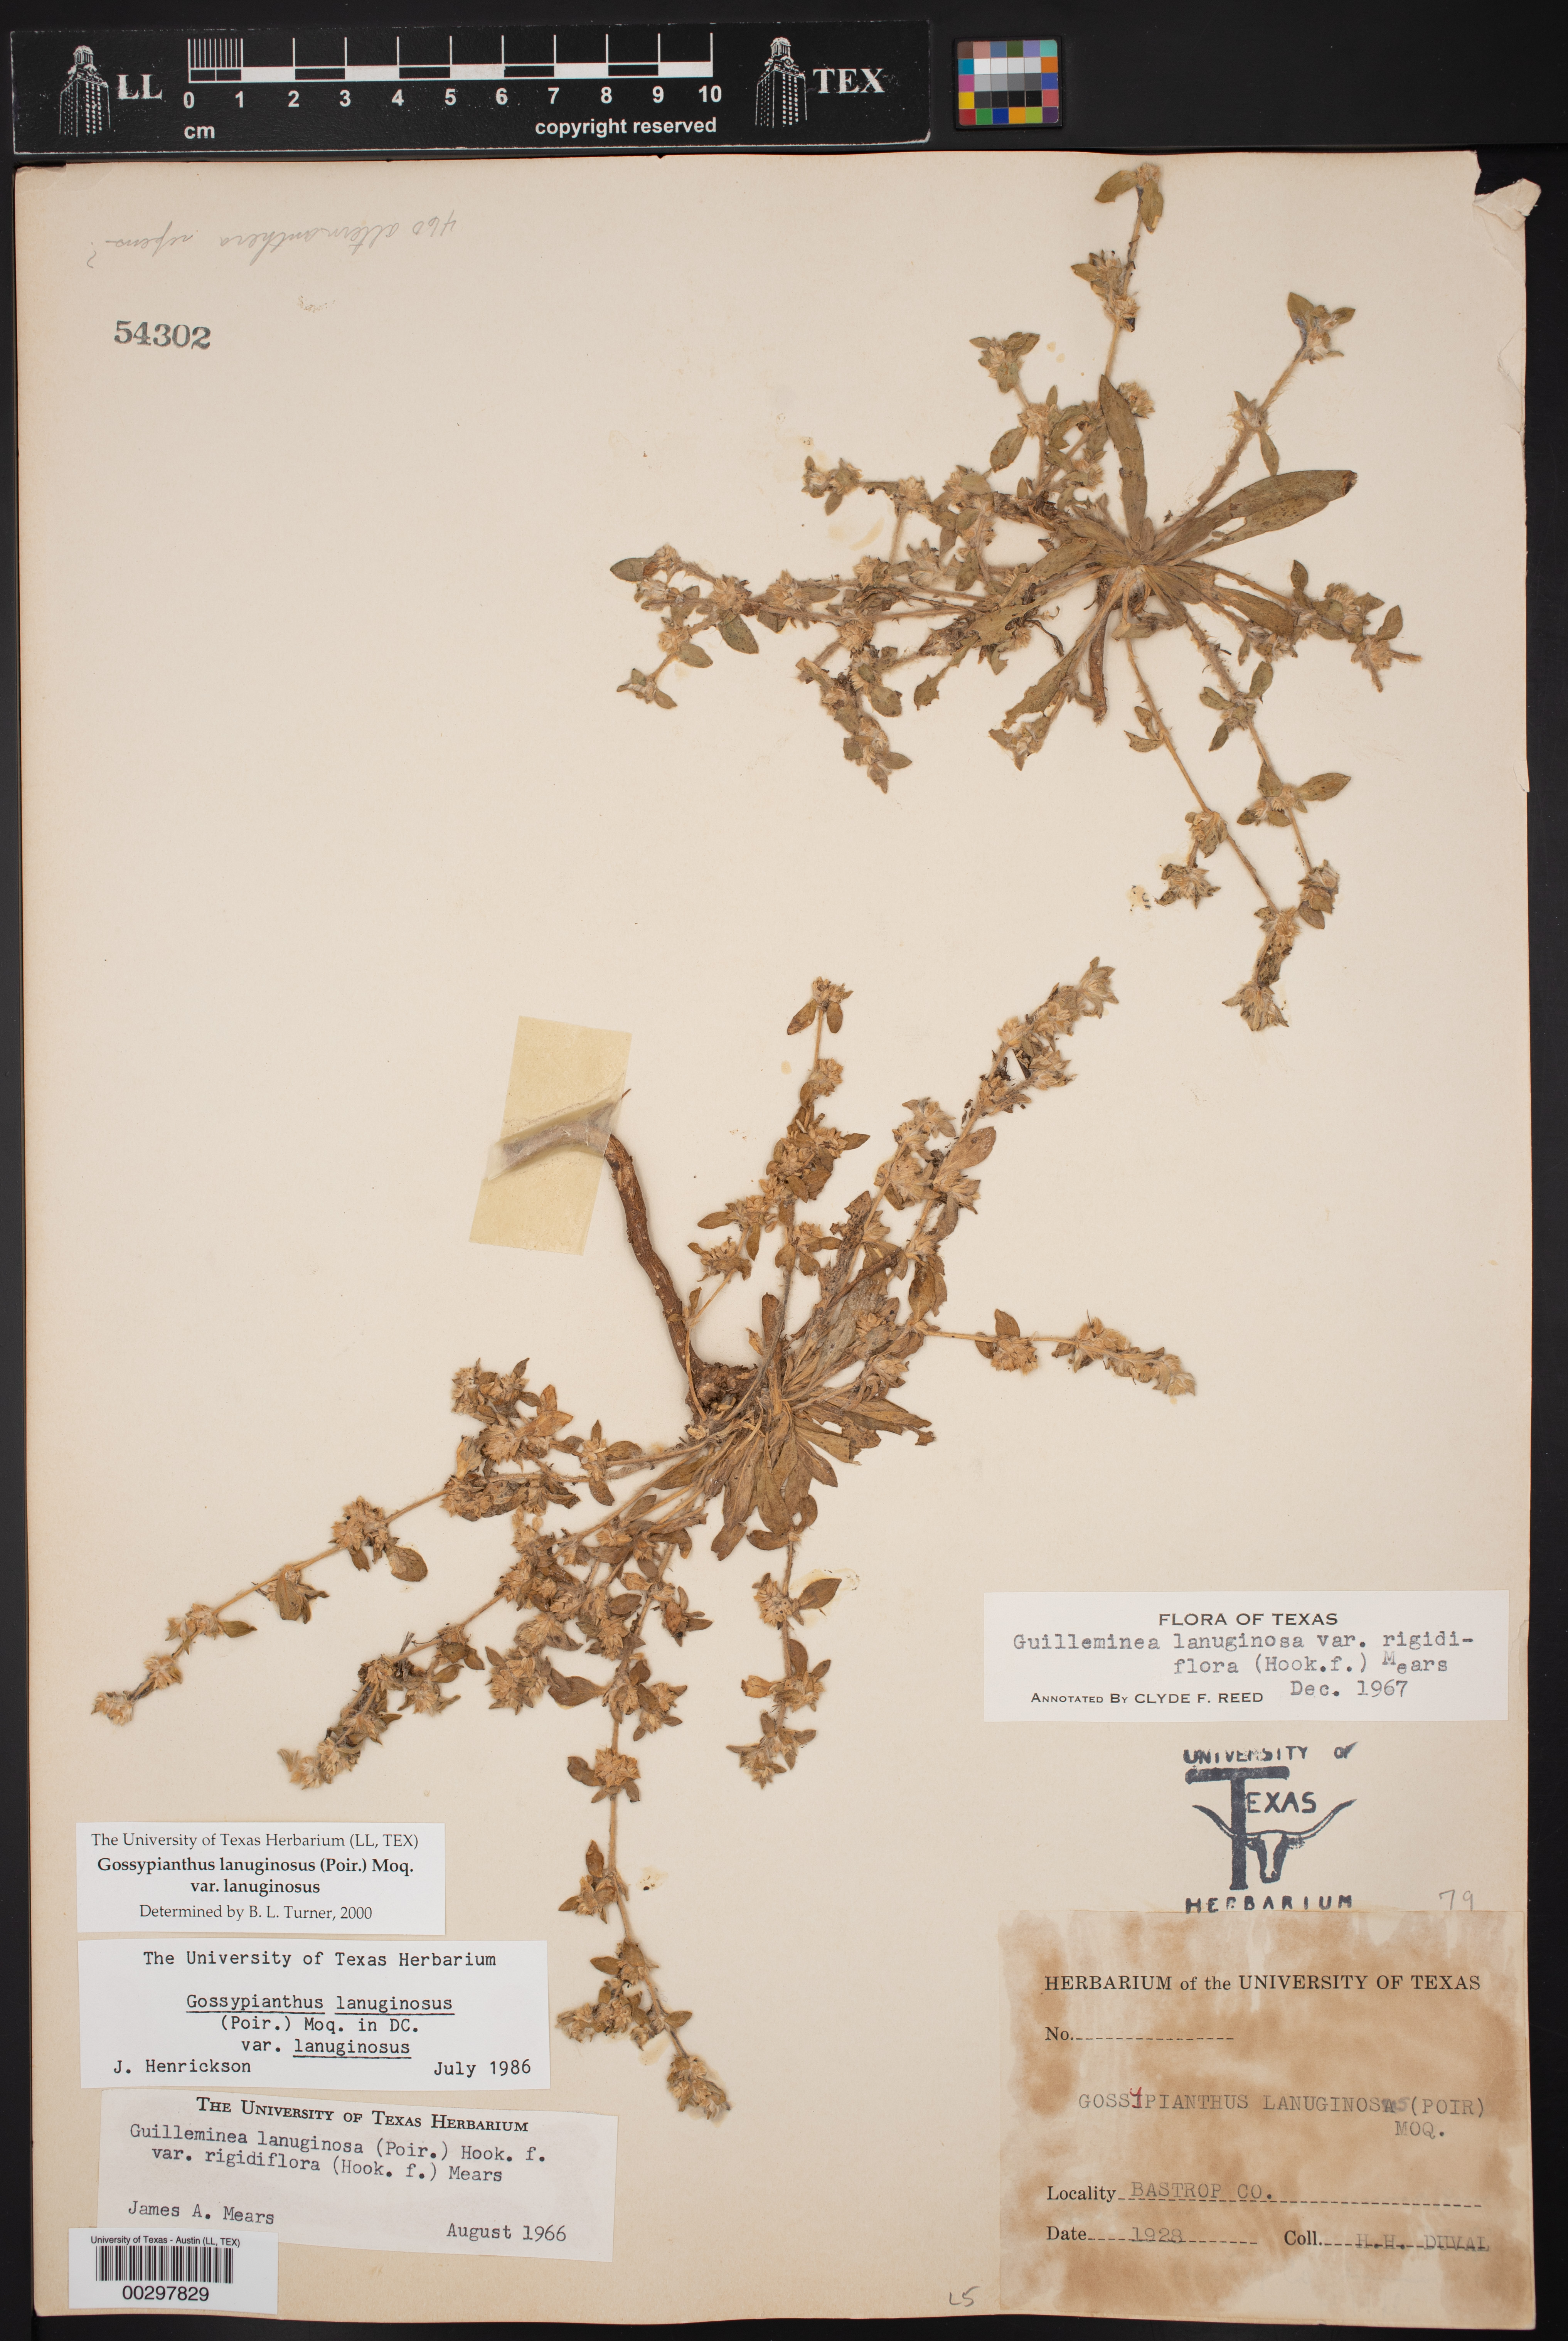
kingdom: Plantae
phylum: Tracheophyta
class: Magnoliopsida
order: Caryophyllales
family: Amaranthaceae
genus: Gomphrena
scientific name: Gomphrena lanuparonychioides
